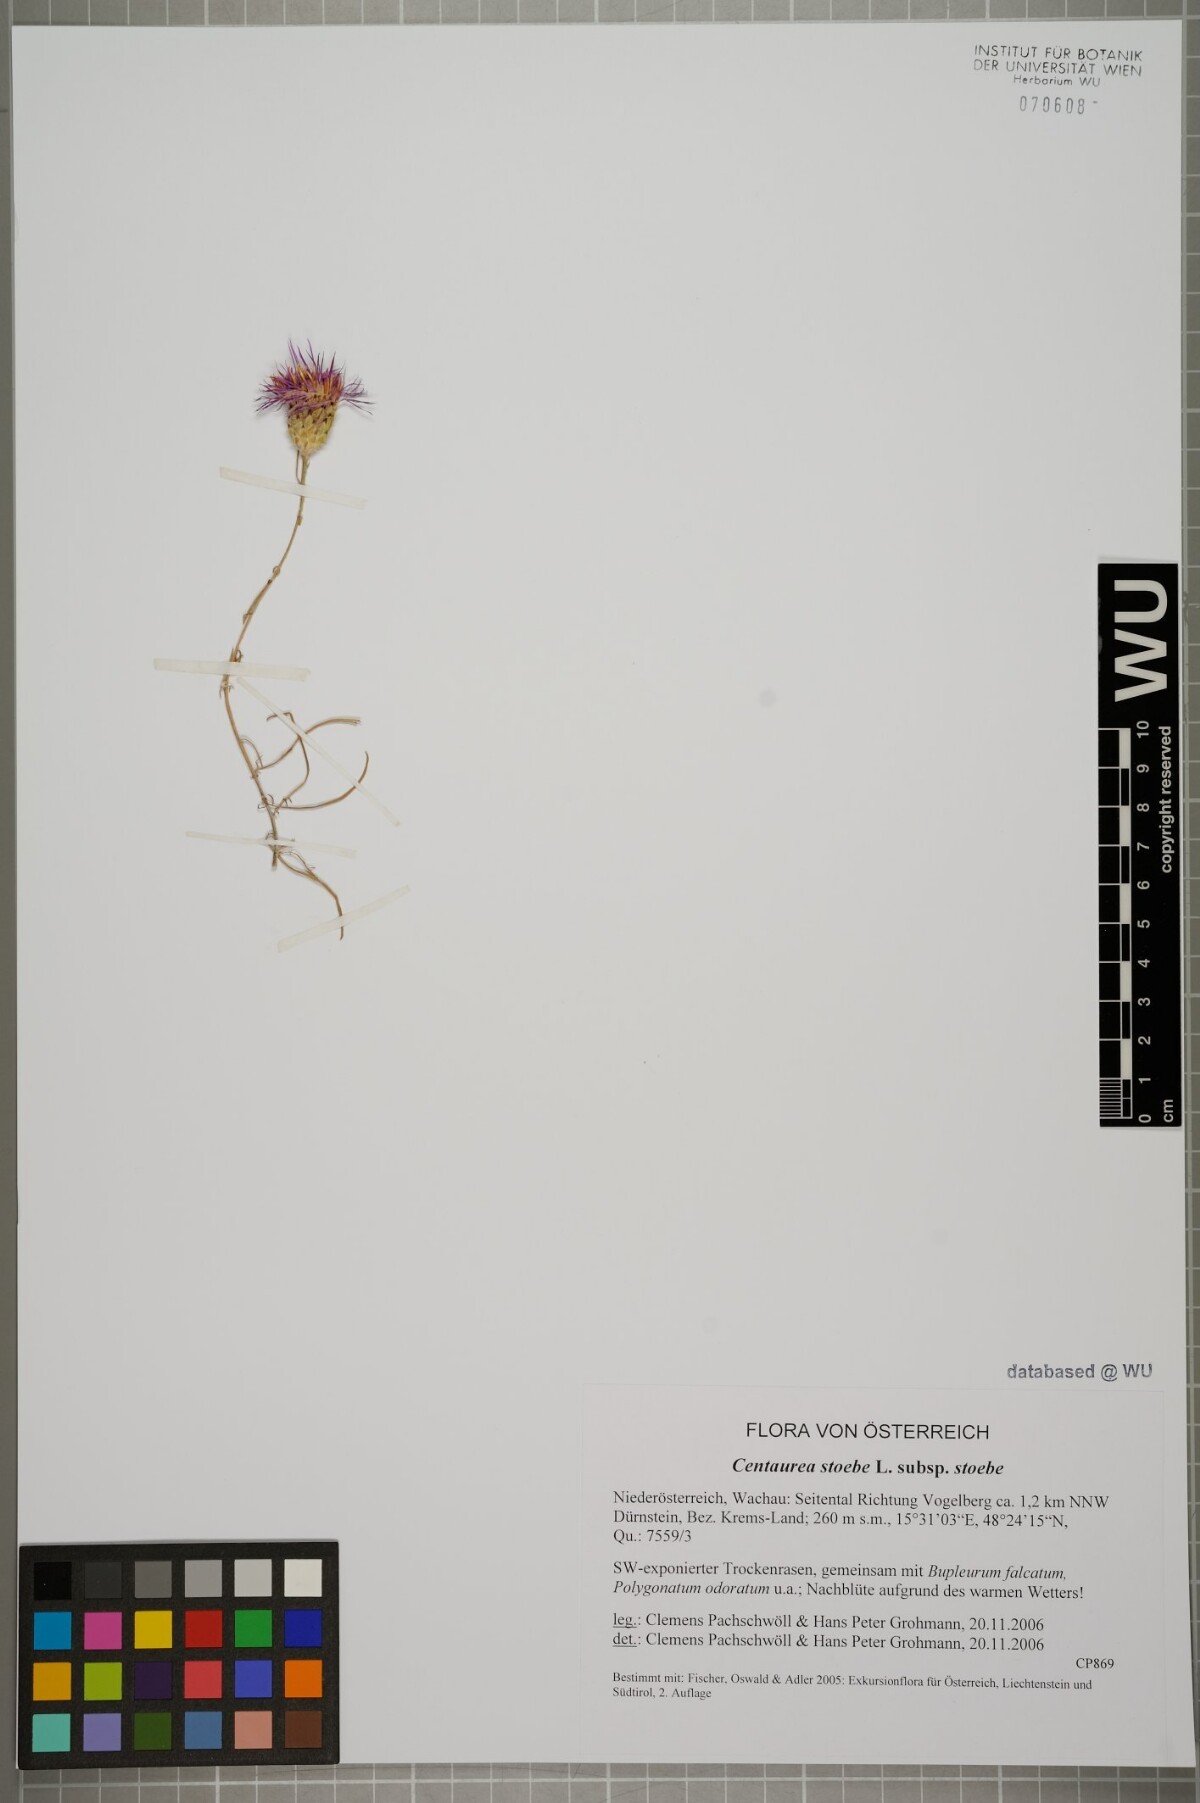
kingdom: Plantae
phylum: Tracheophyta
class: Magnoliopsida
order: Asterales
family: Asteraceae
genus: Centaurea
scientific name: Centaurea stoebe
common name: Spotted knapweed
